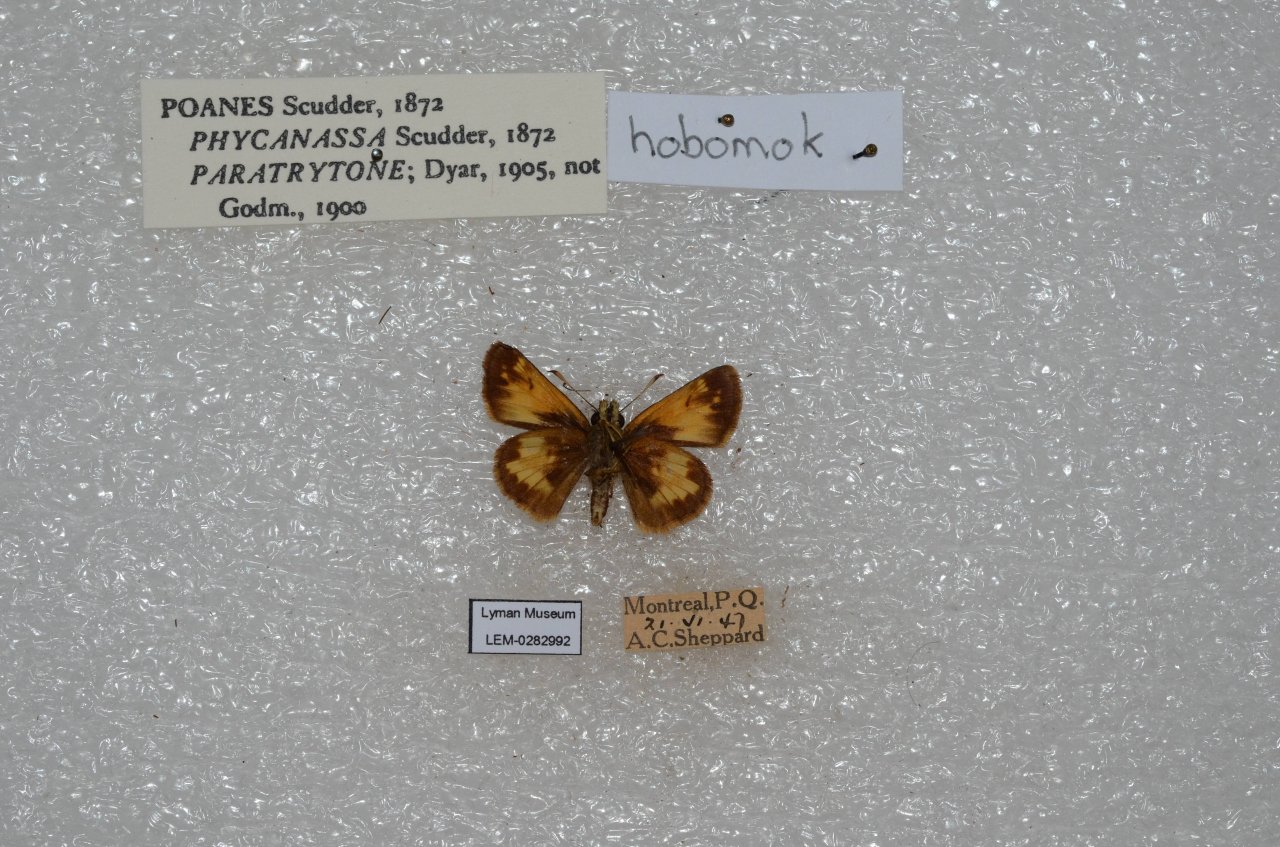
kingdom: Animalia
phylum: Arthropoda
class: Insecta
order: Lepidoptera
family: Hesperiidae
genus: Lon
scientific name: Lon hobomok
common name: Hobomok Skipper
